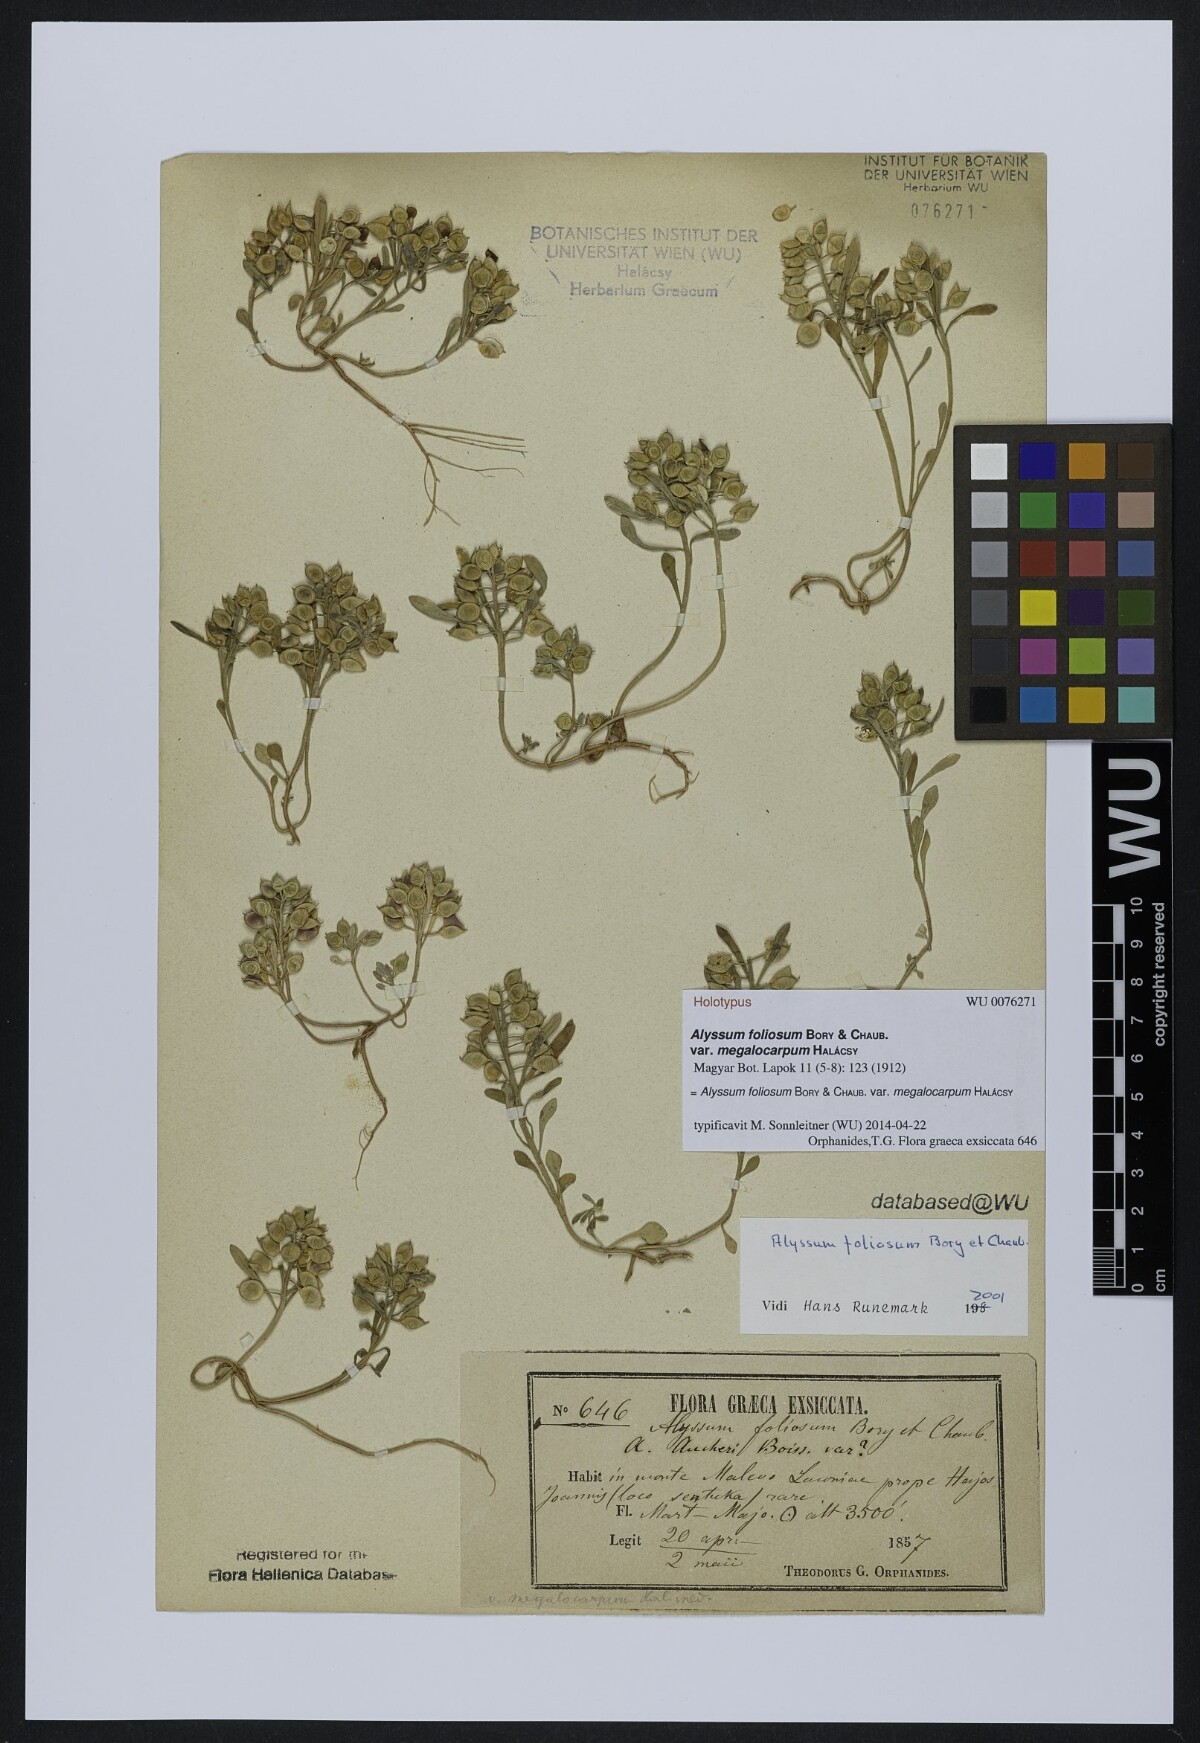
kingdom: Plantae
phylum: Tracheophyta
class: Magnoliopsida
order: Brassicales
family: Brassicaceae
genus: Alyssum
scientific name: Alyssum foliosum
